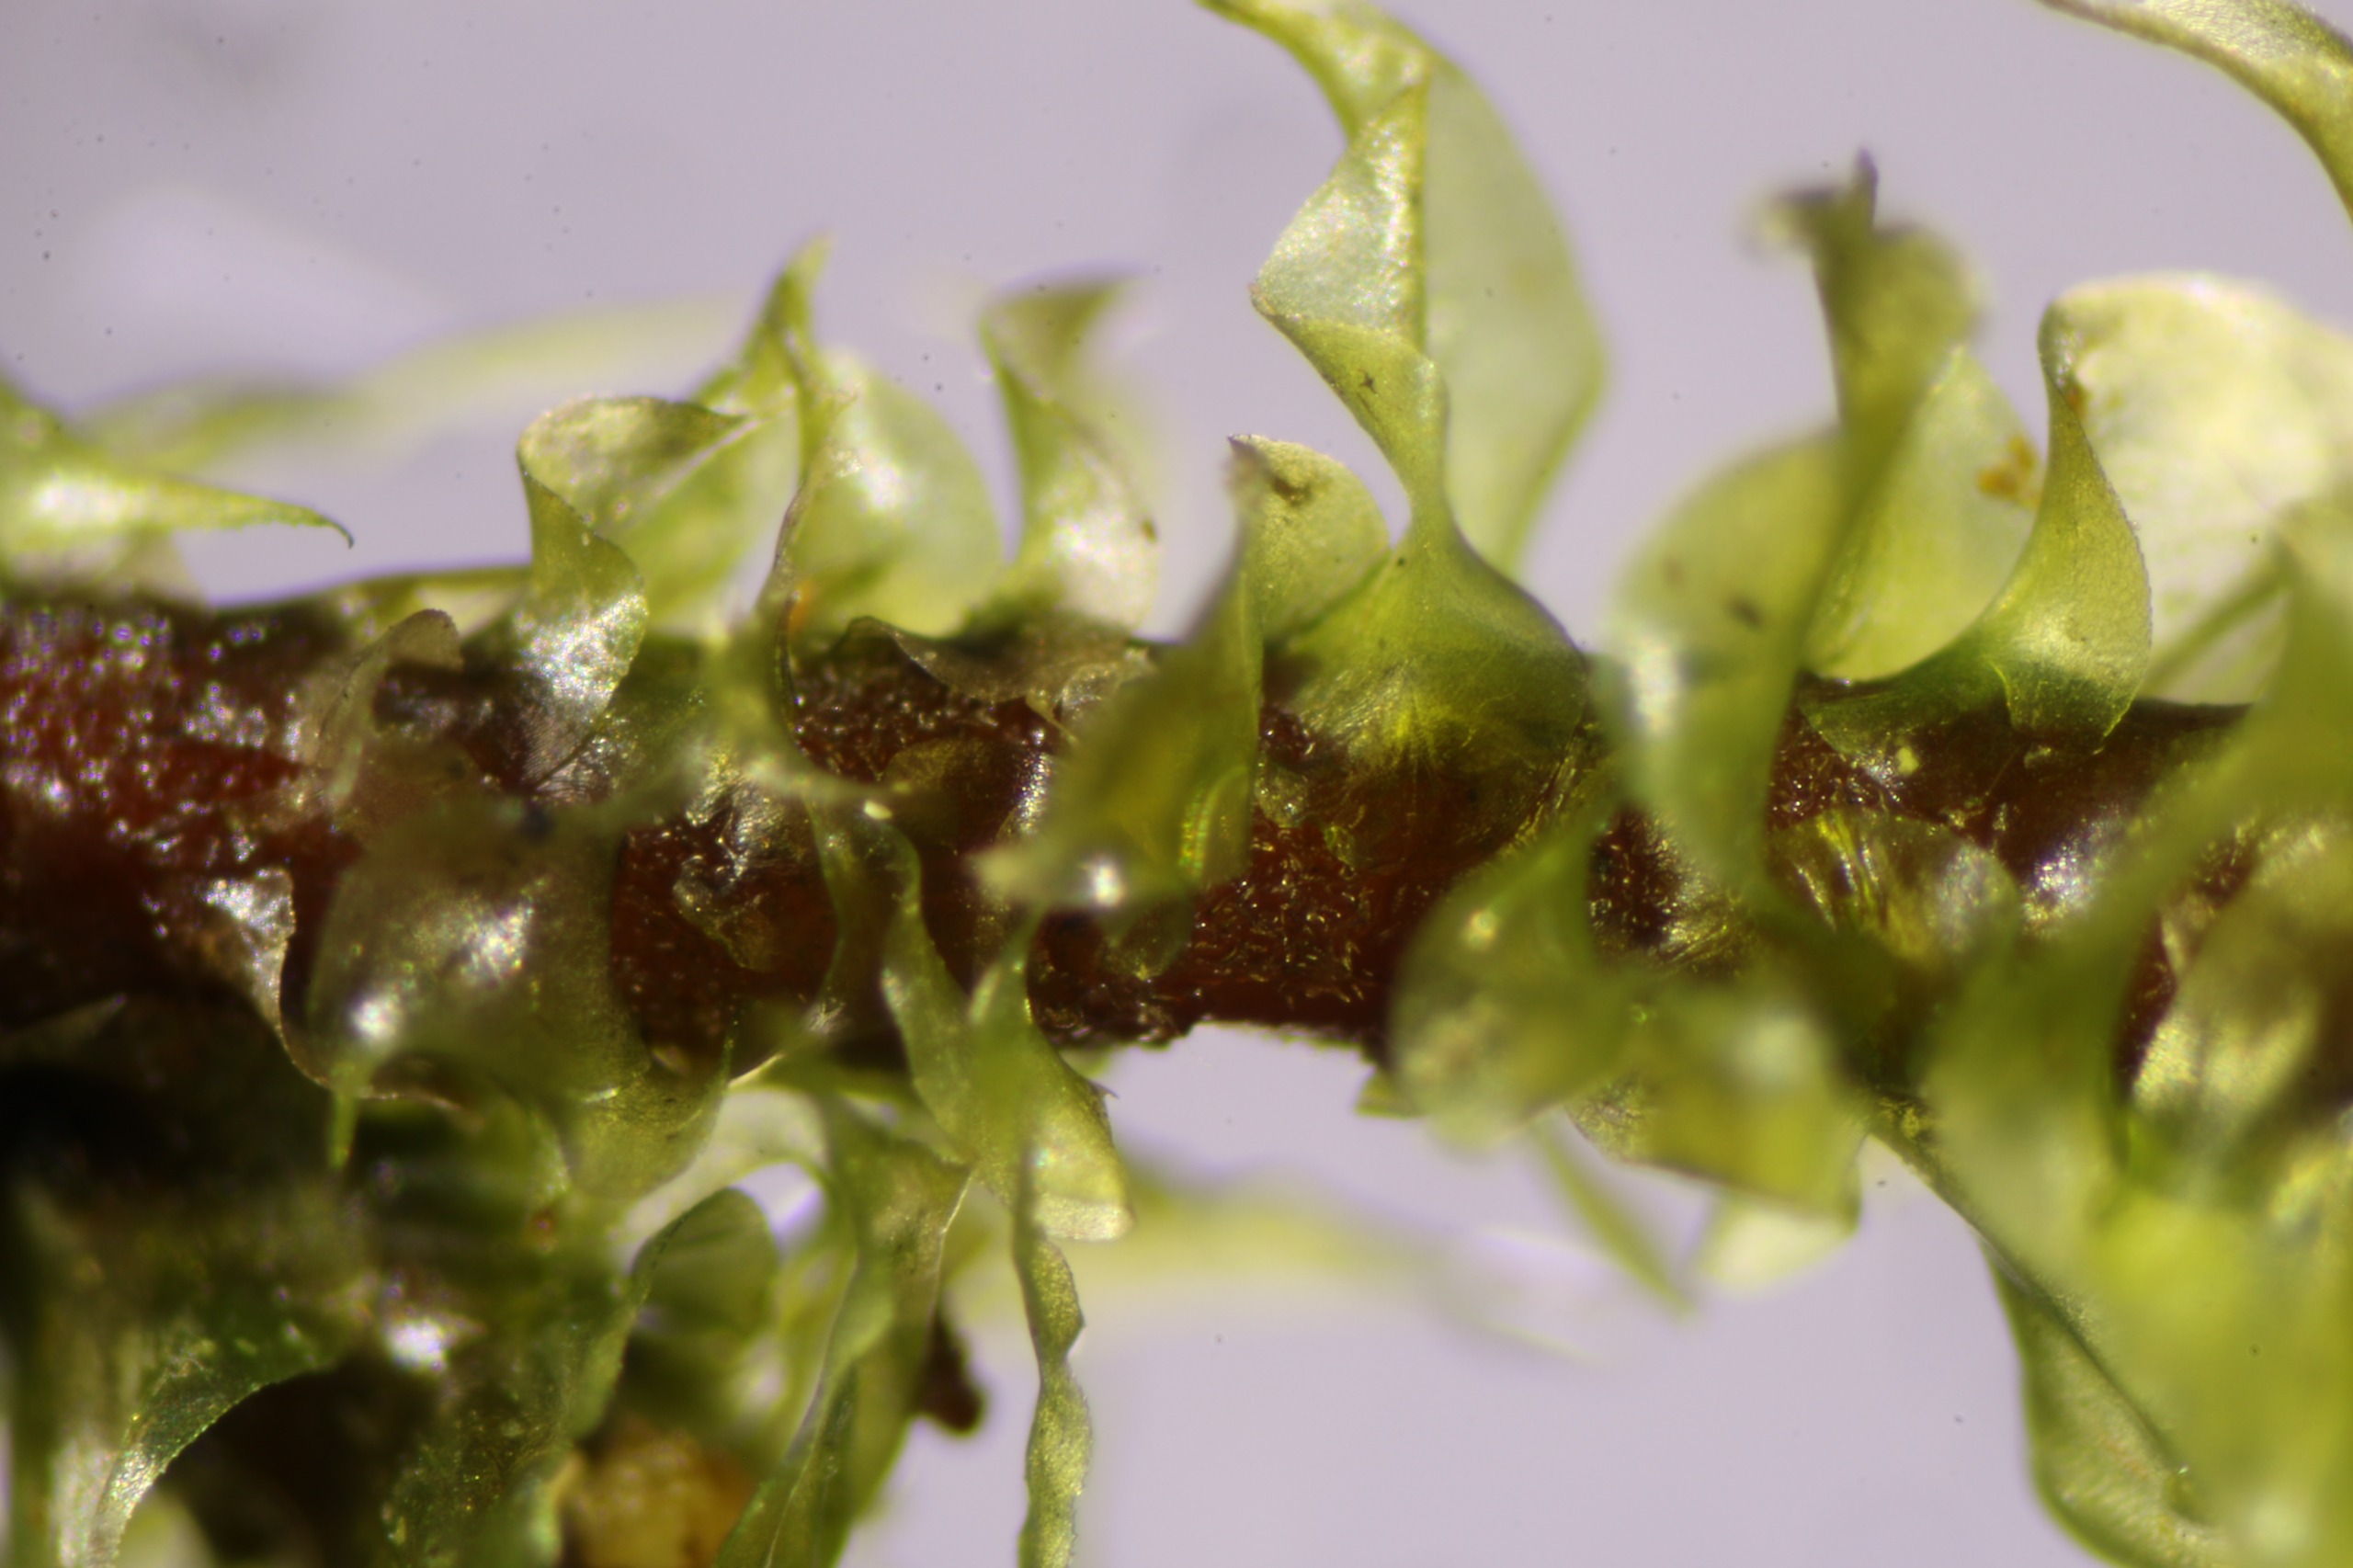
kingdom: Plantae
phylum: Bryophyta
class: Bryopsida
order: Hypnales
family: Hylocomiaceae
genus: Loeskeobryum
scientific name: Loeskeobryum brevirostre
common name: Åben etagemos
